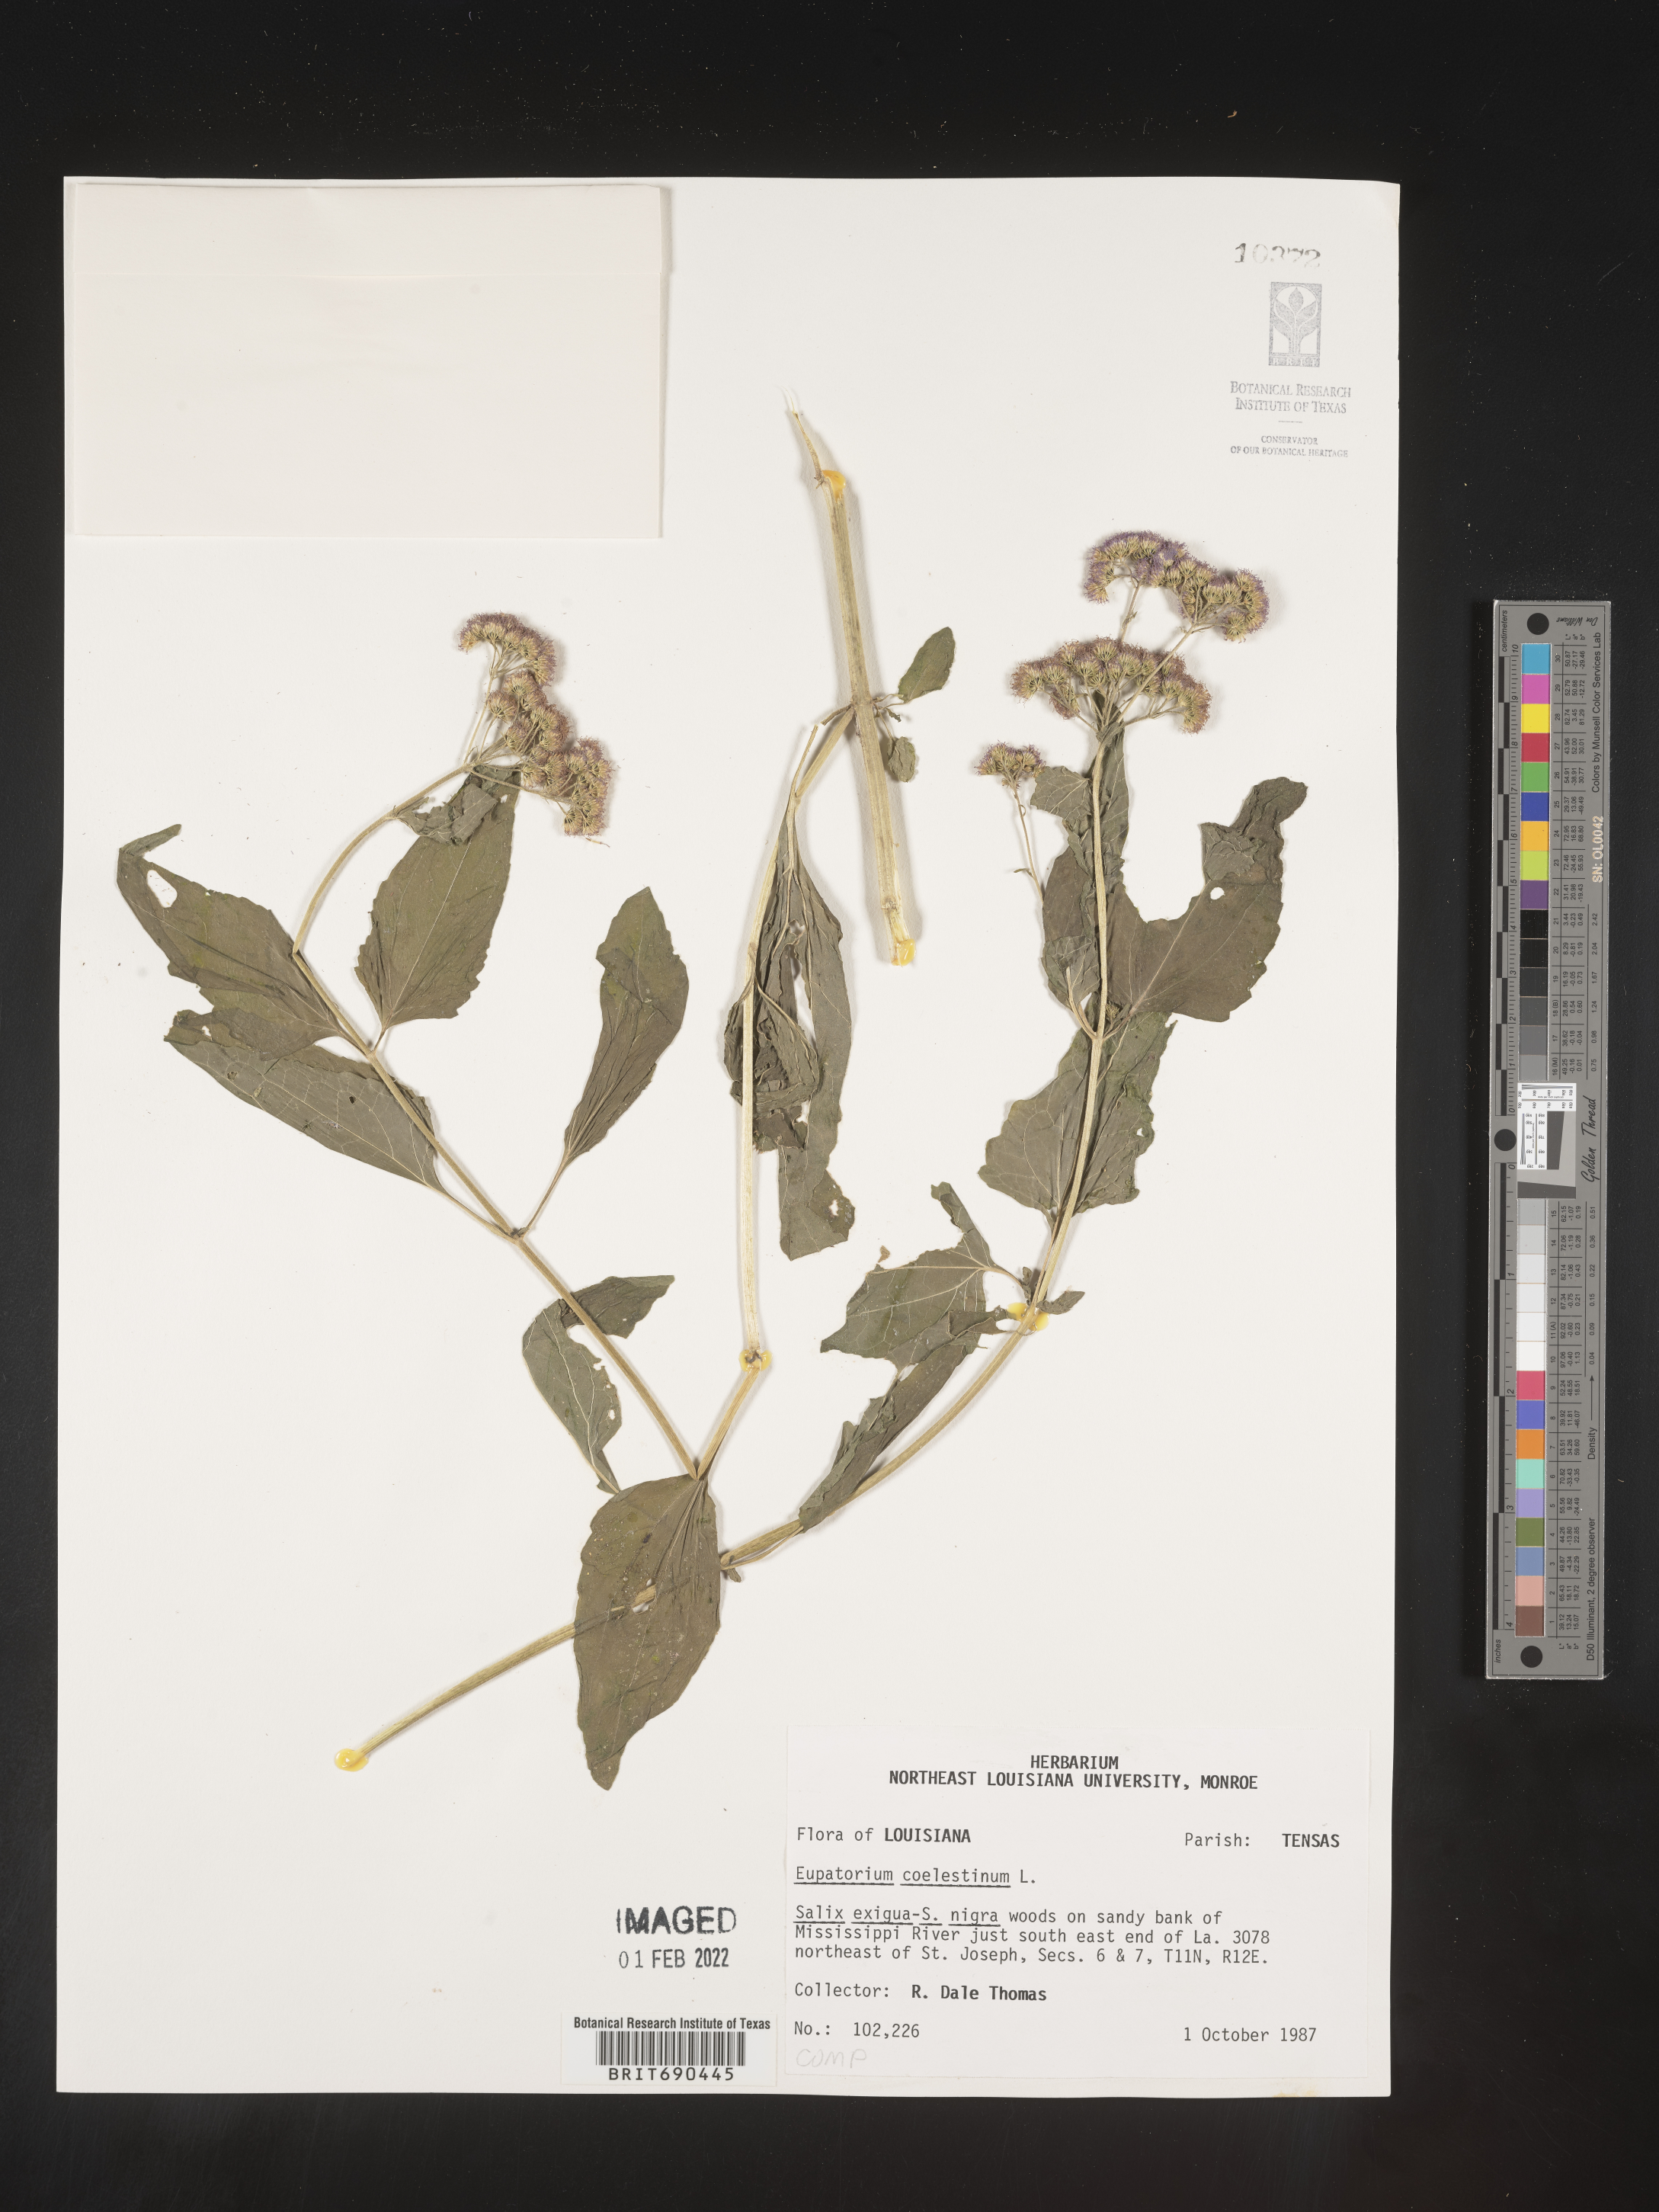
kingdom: Plantae
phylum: Tracheophyta
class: Magnoliopsida
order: Asterales
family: Asteraceae
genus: Conoclinium
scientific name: Conoclinium coelestinum
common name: Blue mistflower
